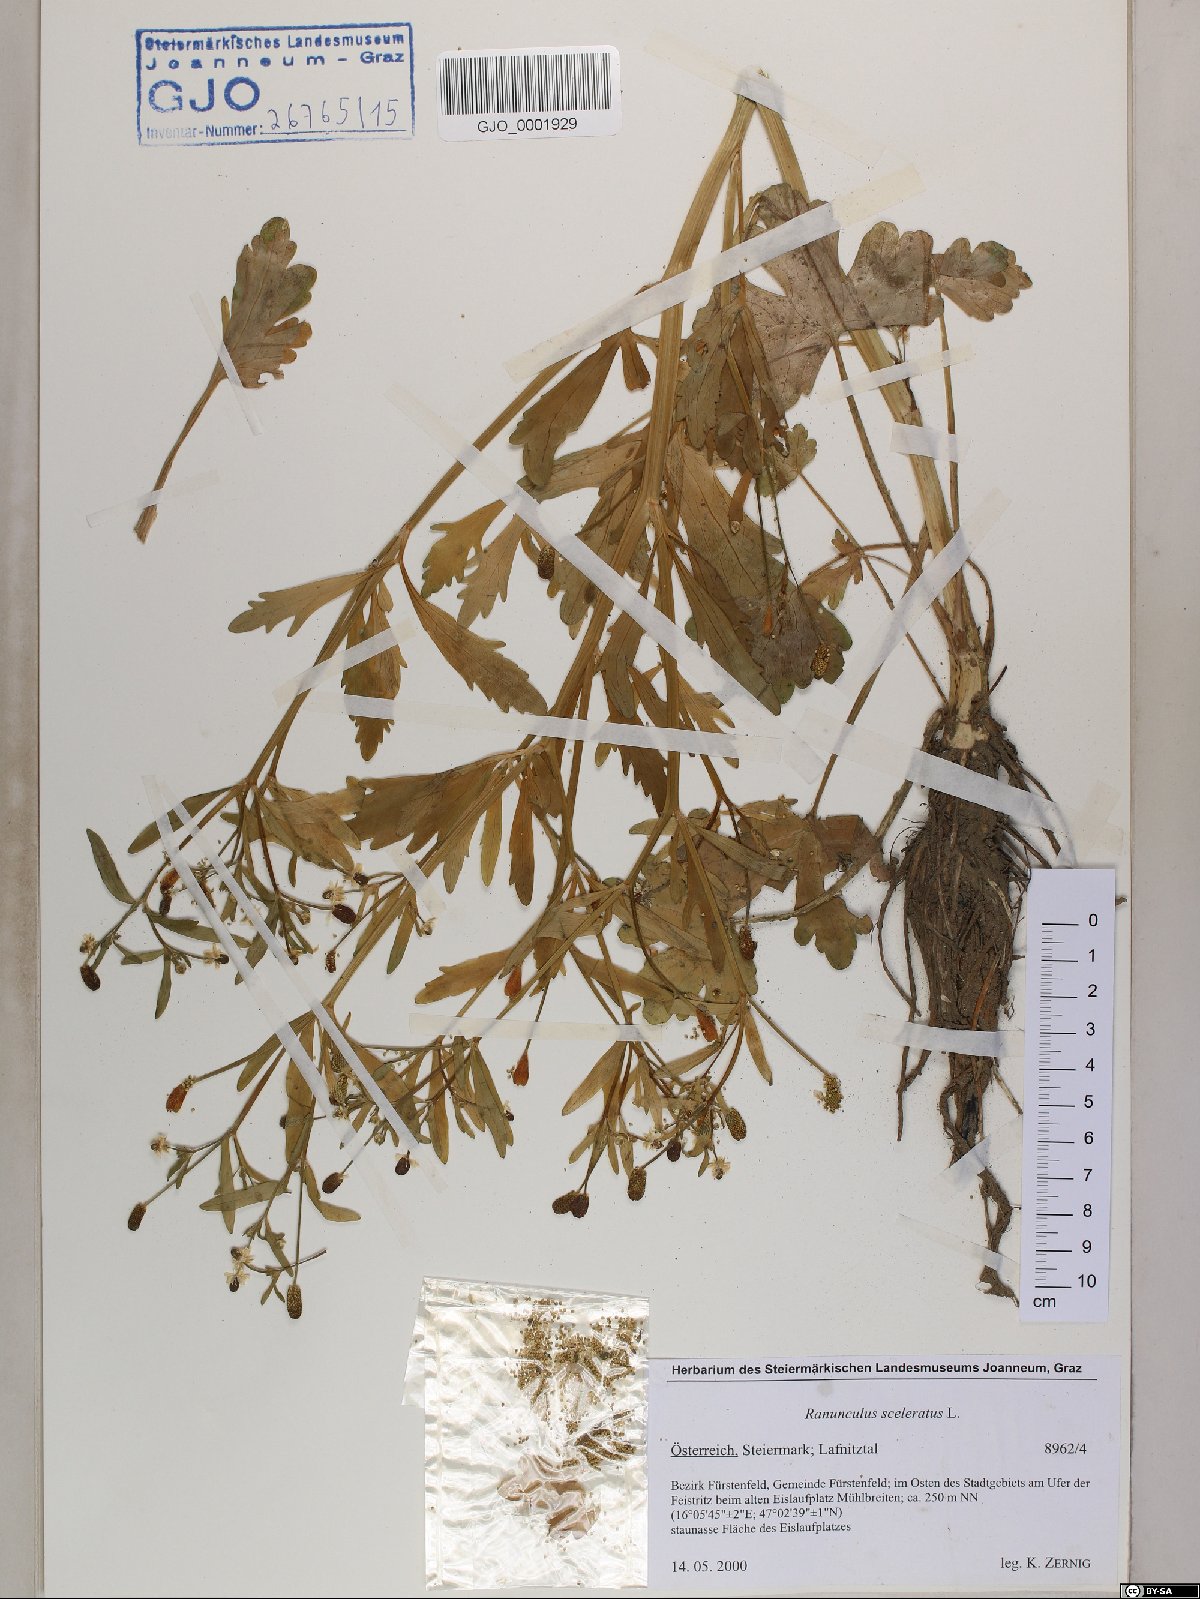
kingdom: Plantae
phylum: Tracheophyta
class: Magnoliopsida
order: Ranunculales
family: Ranunculaceae
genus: Ranunculus
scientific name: Ranunculus sceleratus
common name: Celery-leaved buttercup
